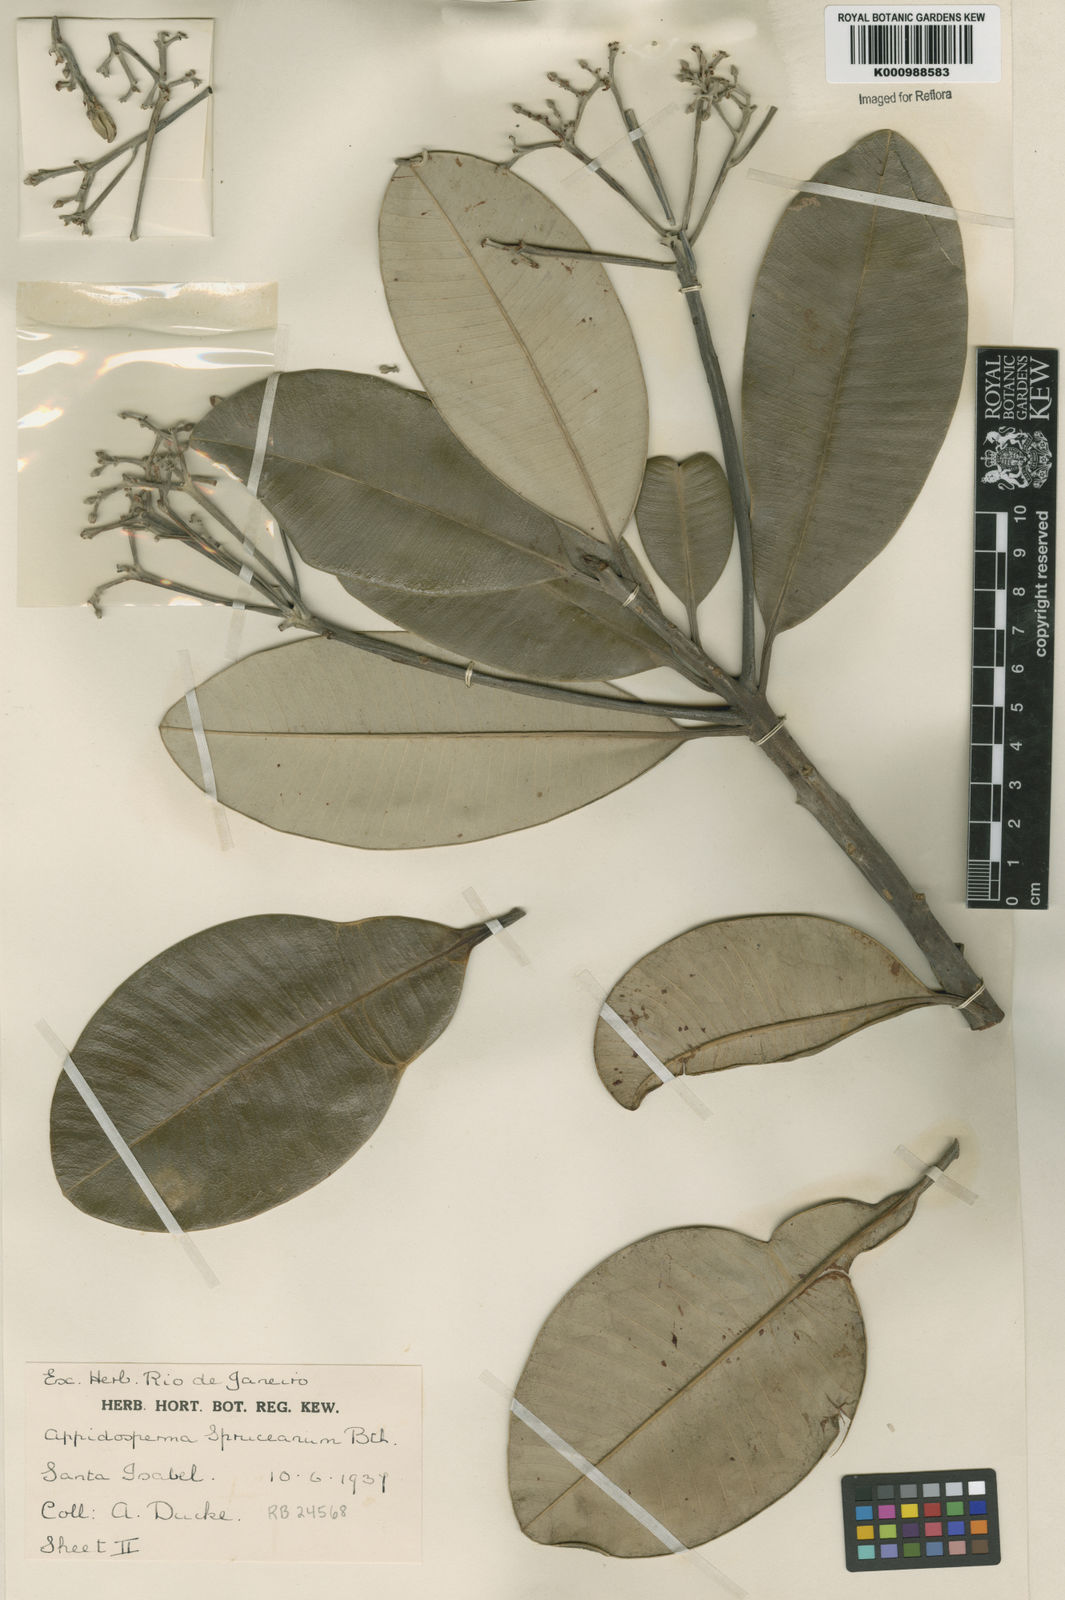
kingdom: Plantae
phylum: Tracheophyta
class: Magnoliopsida
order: Gentianales
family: Apocynaceae
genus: Aspidosperma
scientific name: Aspidosperma
